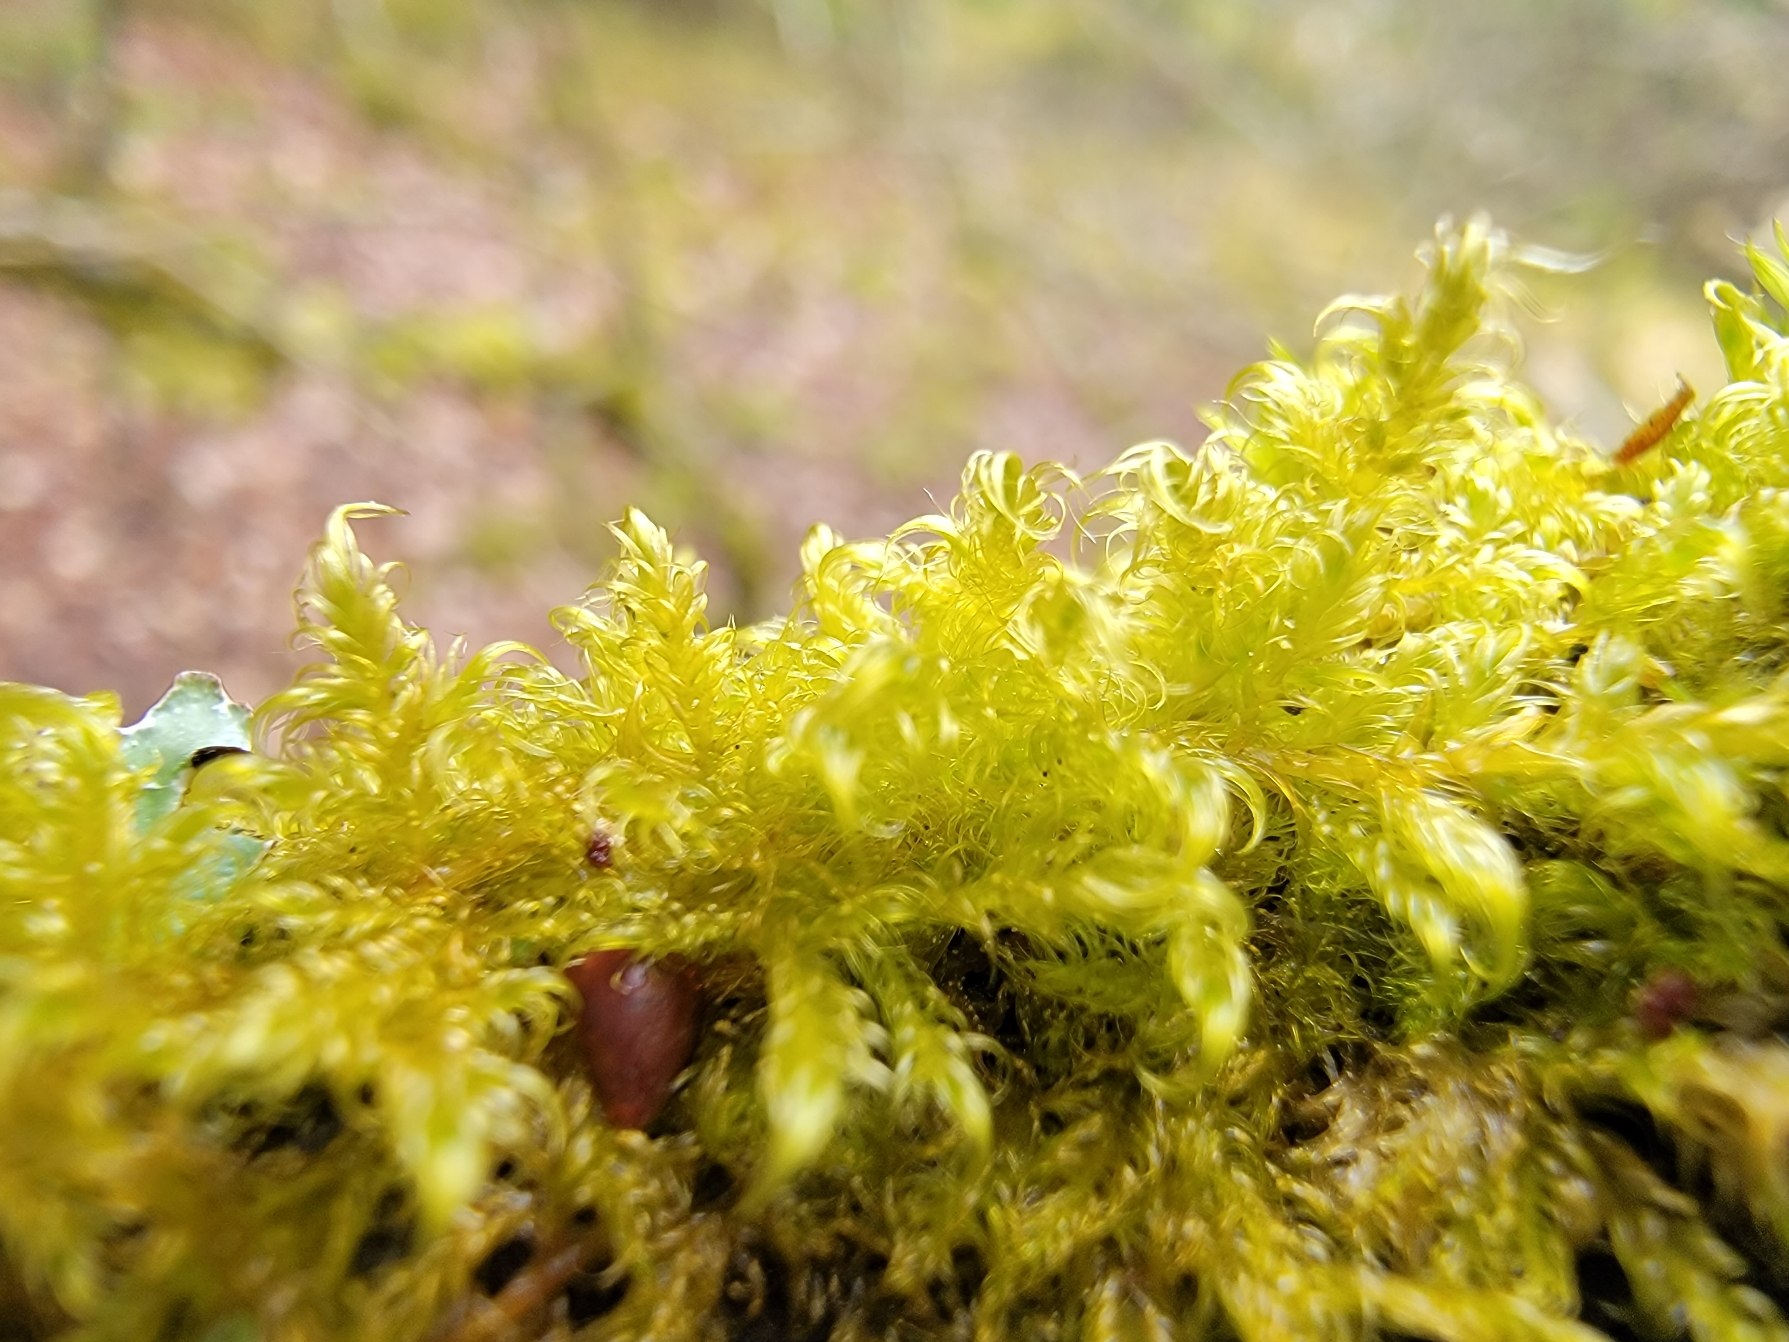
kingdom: Plantae
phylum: Bryophyta
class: Bryopsida
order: Hypnales
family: Scorpidiaceae
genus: Sanionia
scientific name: Sanionia uncinata
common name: Stribet krogblad
